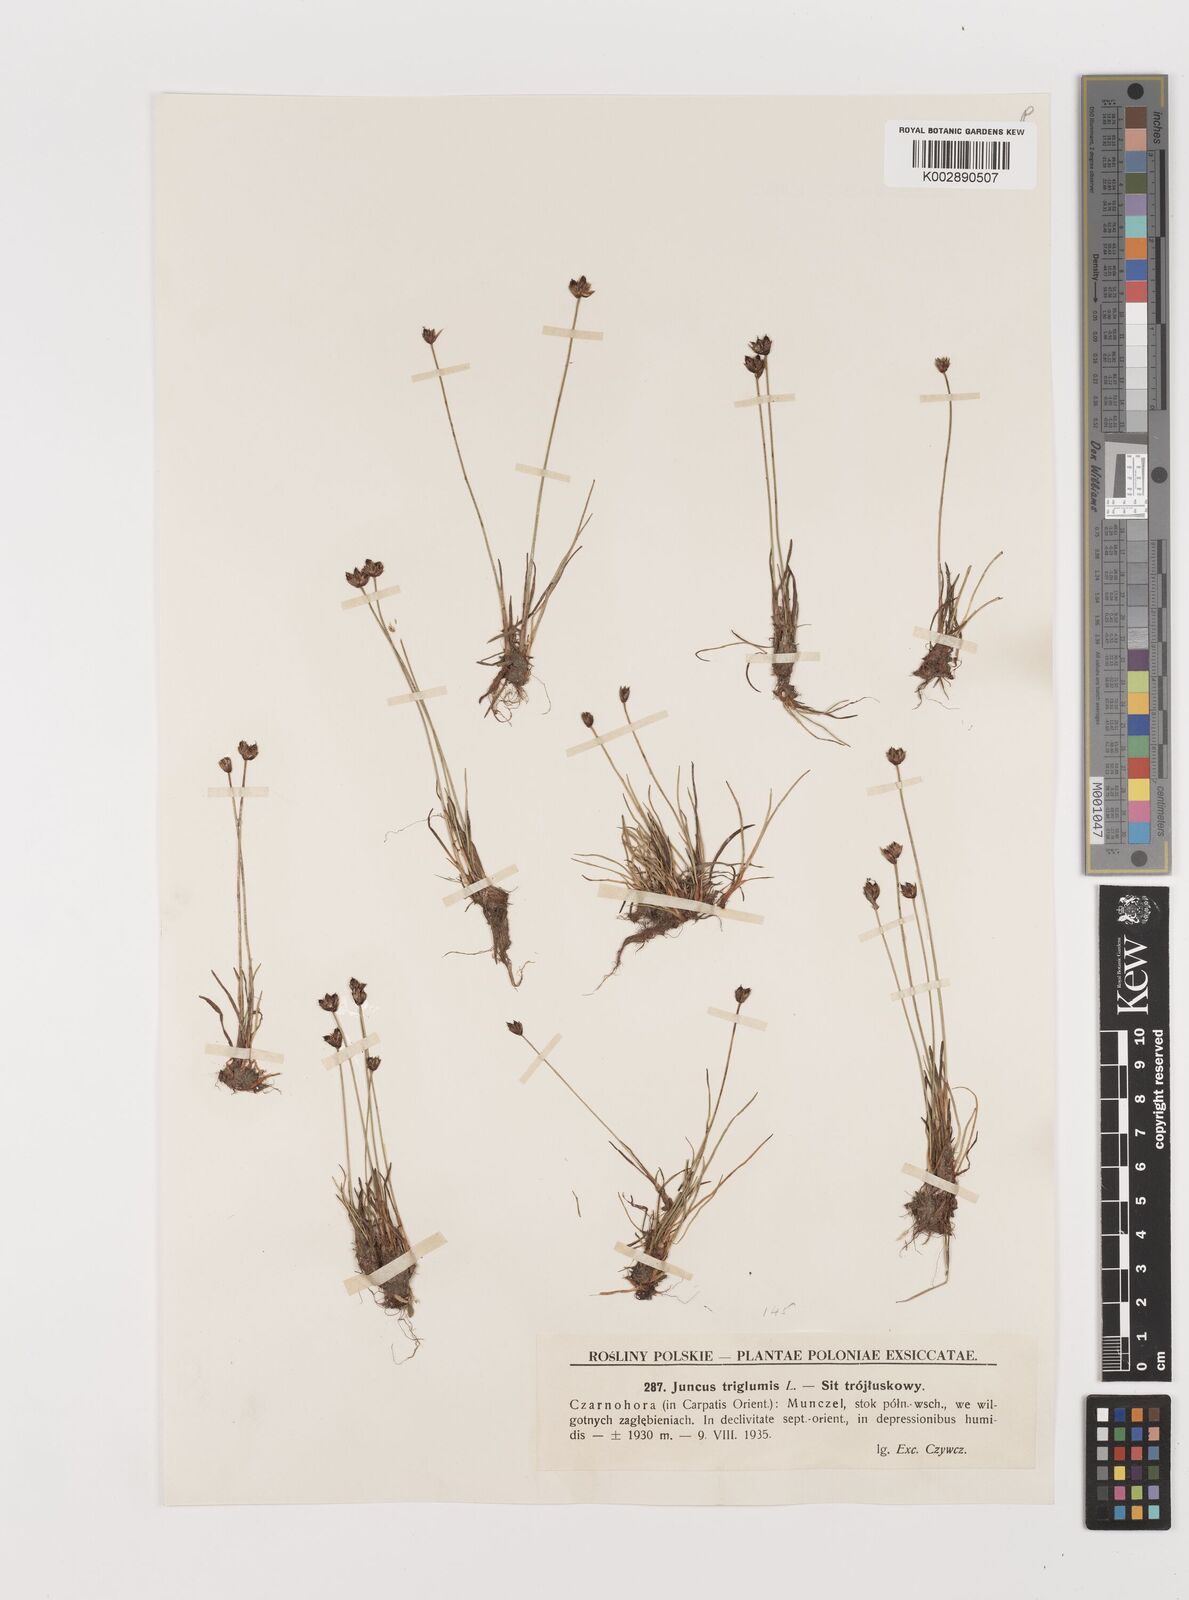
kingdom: Plantae
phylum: Tracheophyta
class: Liliopsida
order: Poales
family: Juncaceae
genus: Juncus
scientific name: Juncus triglumis
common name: Three-flowered rush
